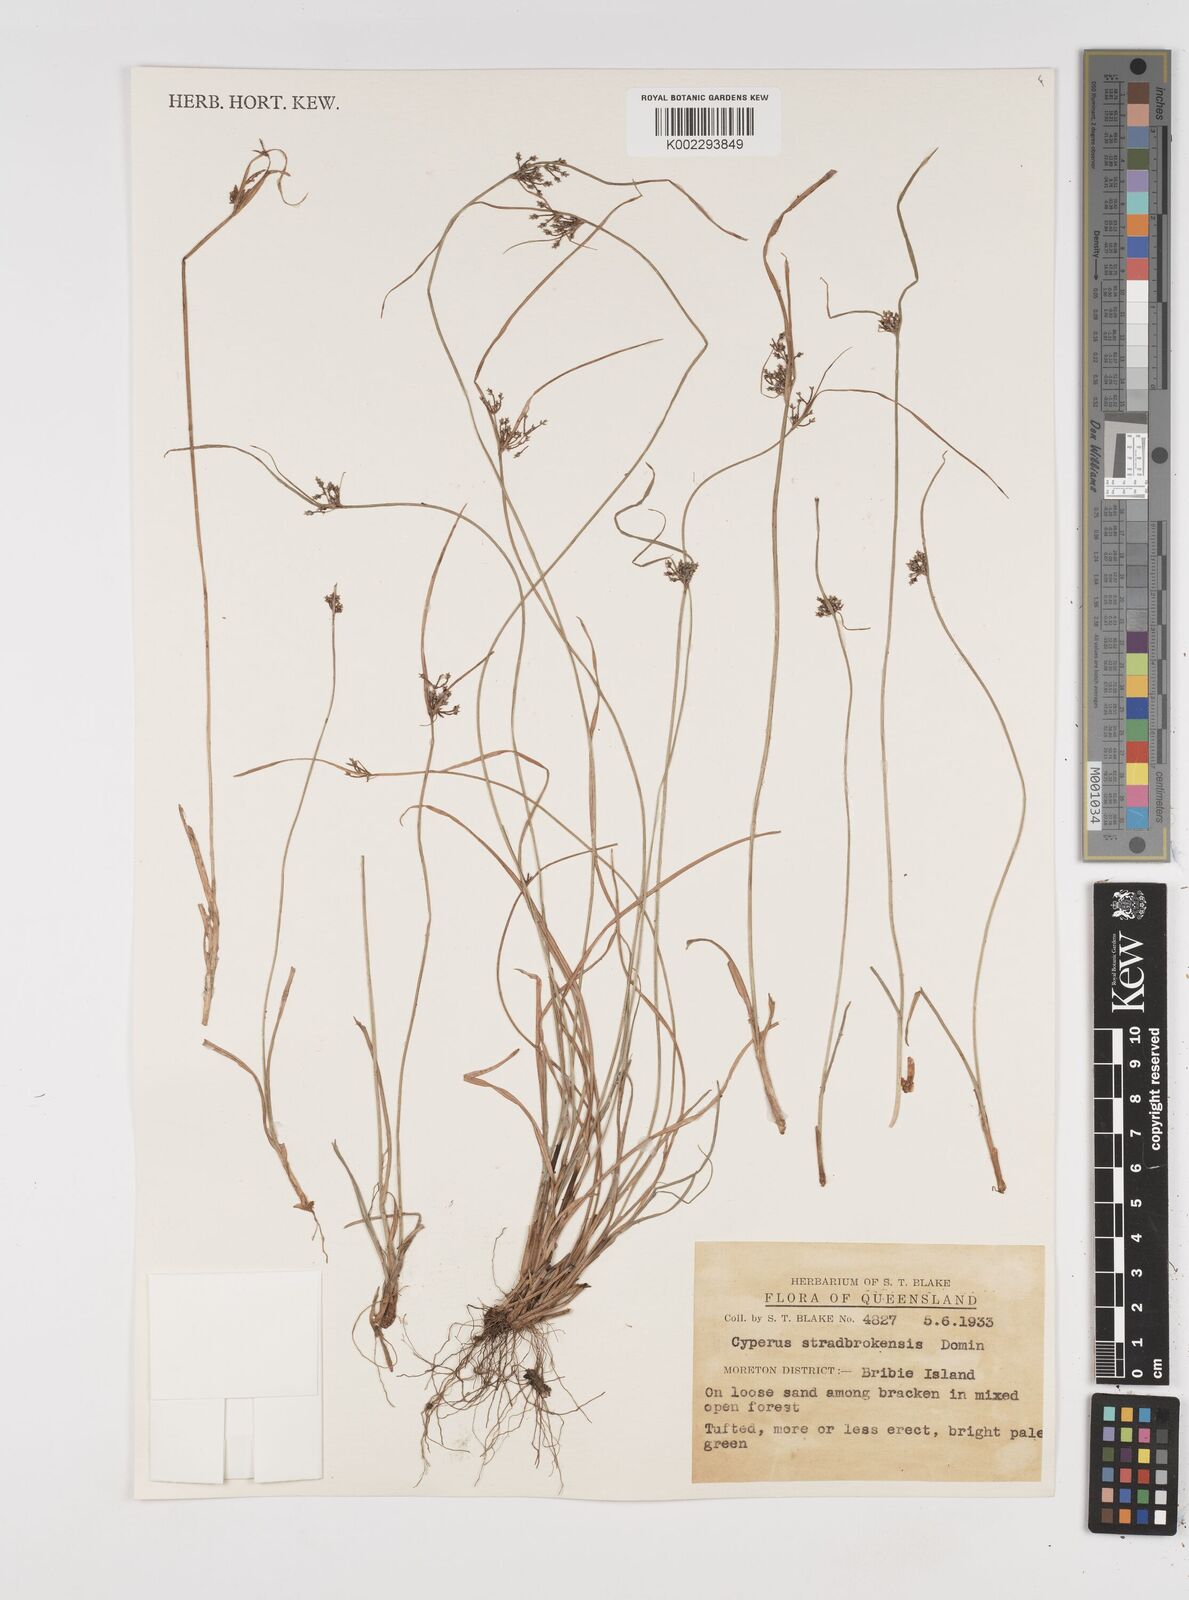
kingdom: Plantae
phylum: Tracheophyta
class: Liliopsida
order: Poales
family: Cyperaceae
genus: Cyperus
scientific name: Cyperus stradbrokensis
